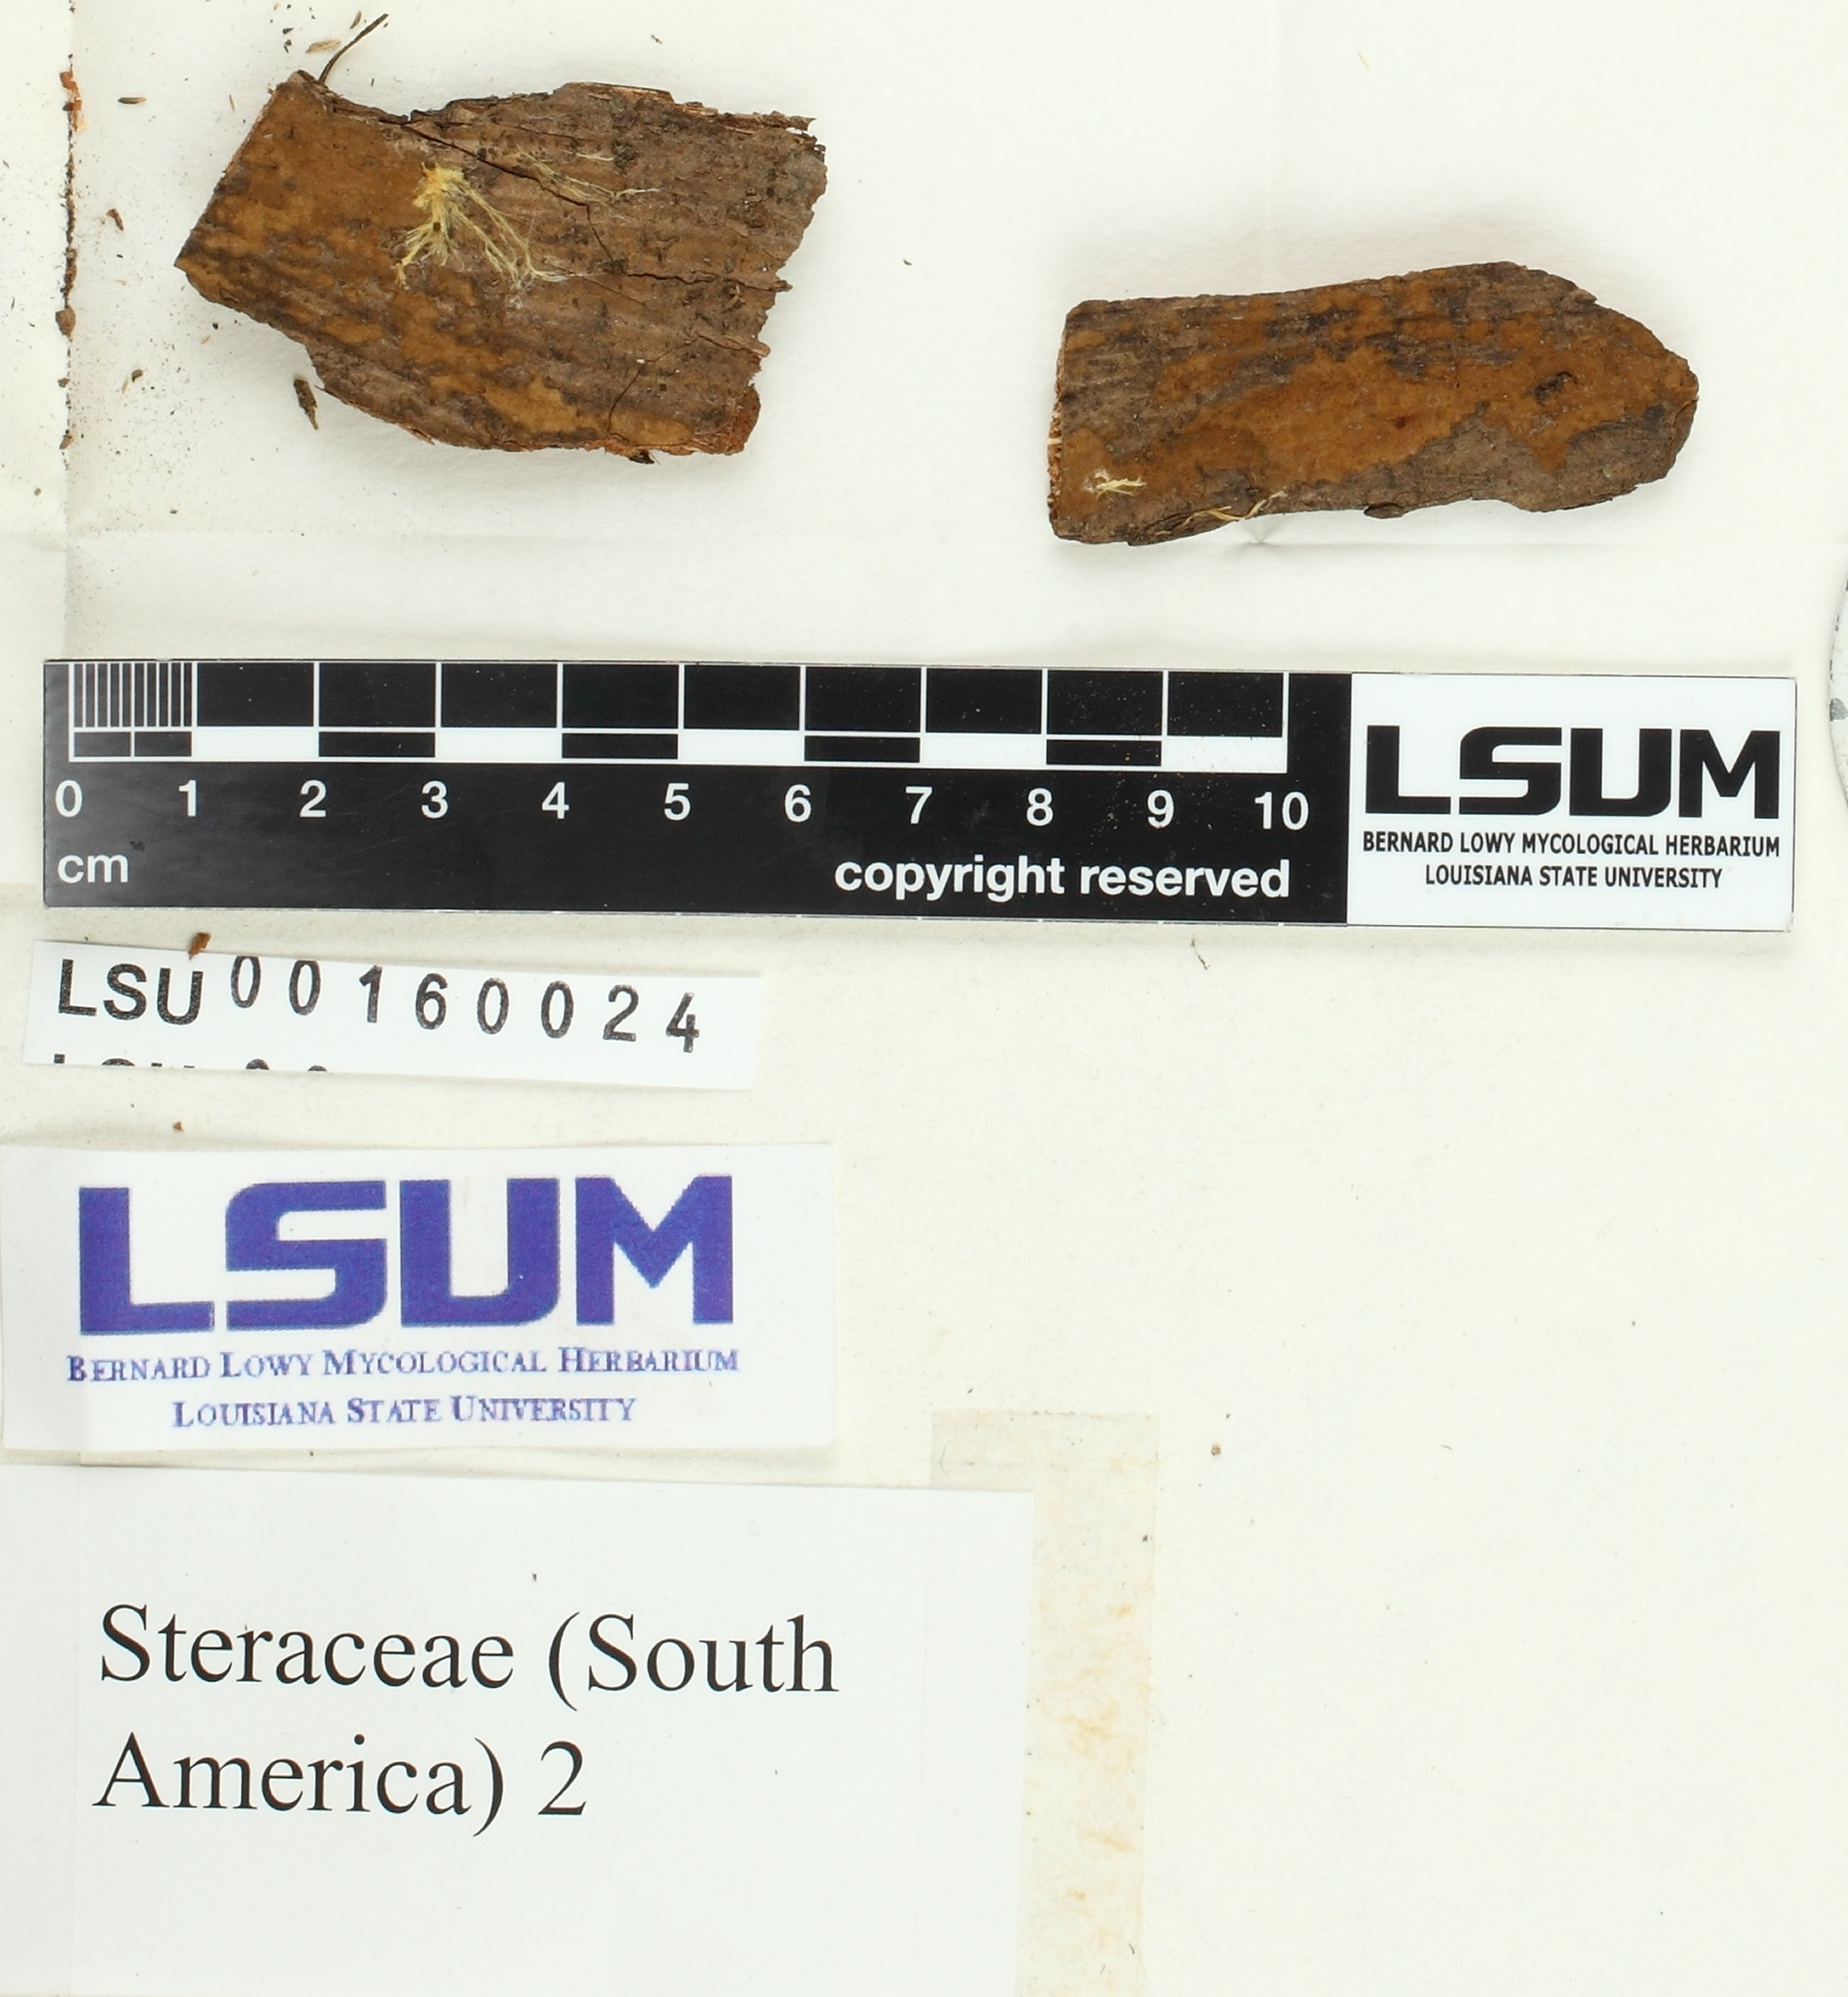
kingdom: Fungi
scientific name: Fungi
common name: Fungi
